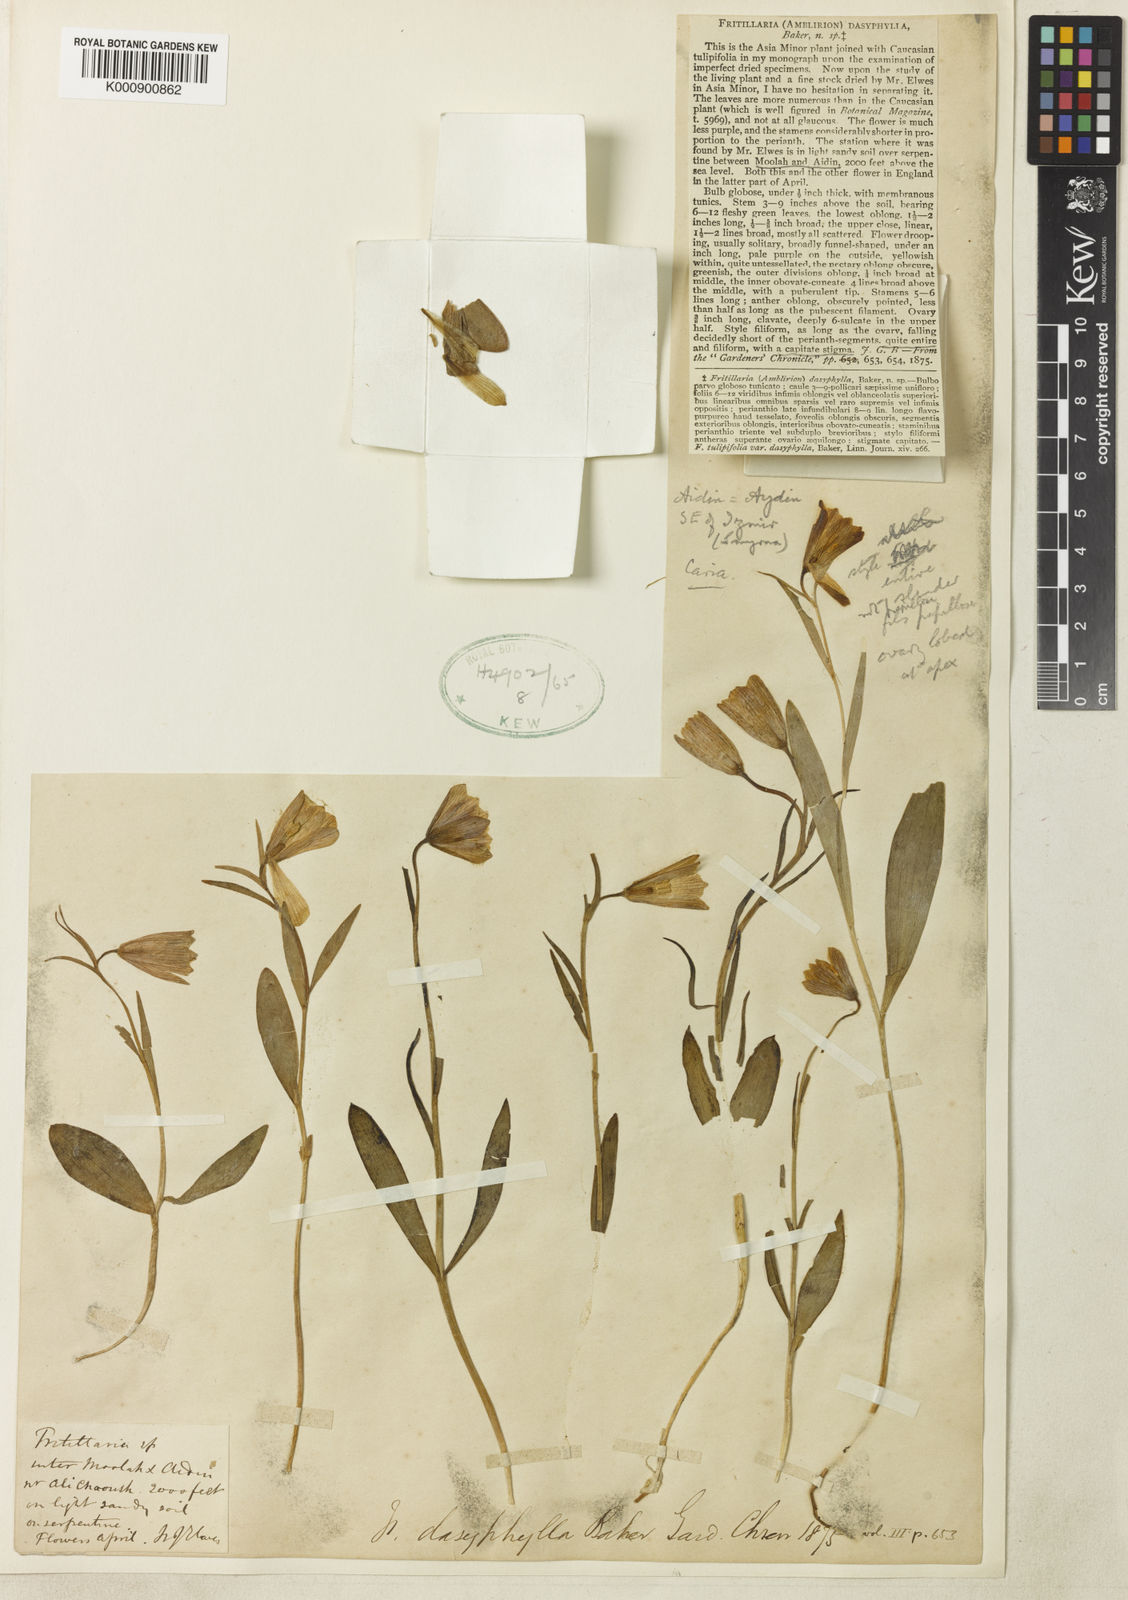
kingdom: Plantae
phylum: Tracheophyta
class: Liliopsida
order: Liliales
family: Liliaceae
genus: Fritillaria
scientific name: Fritillaria bithynica
